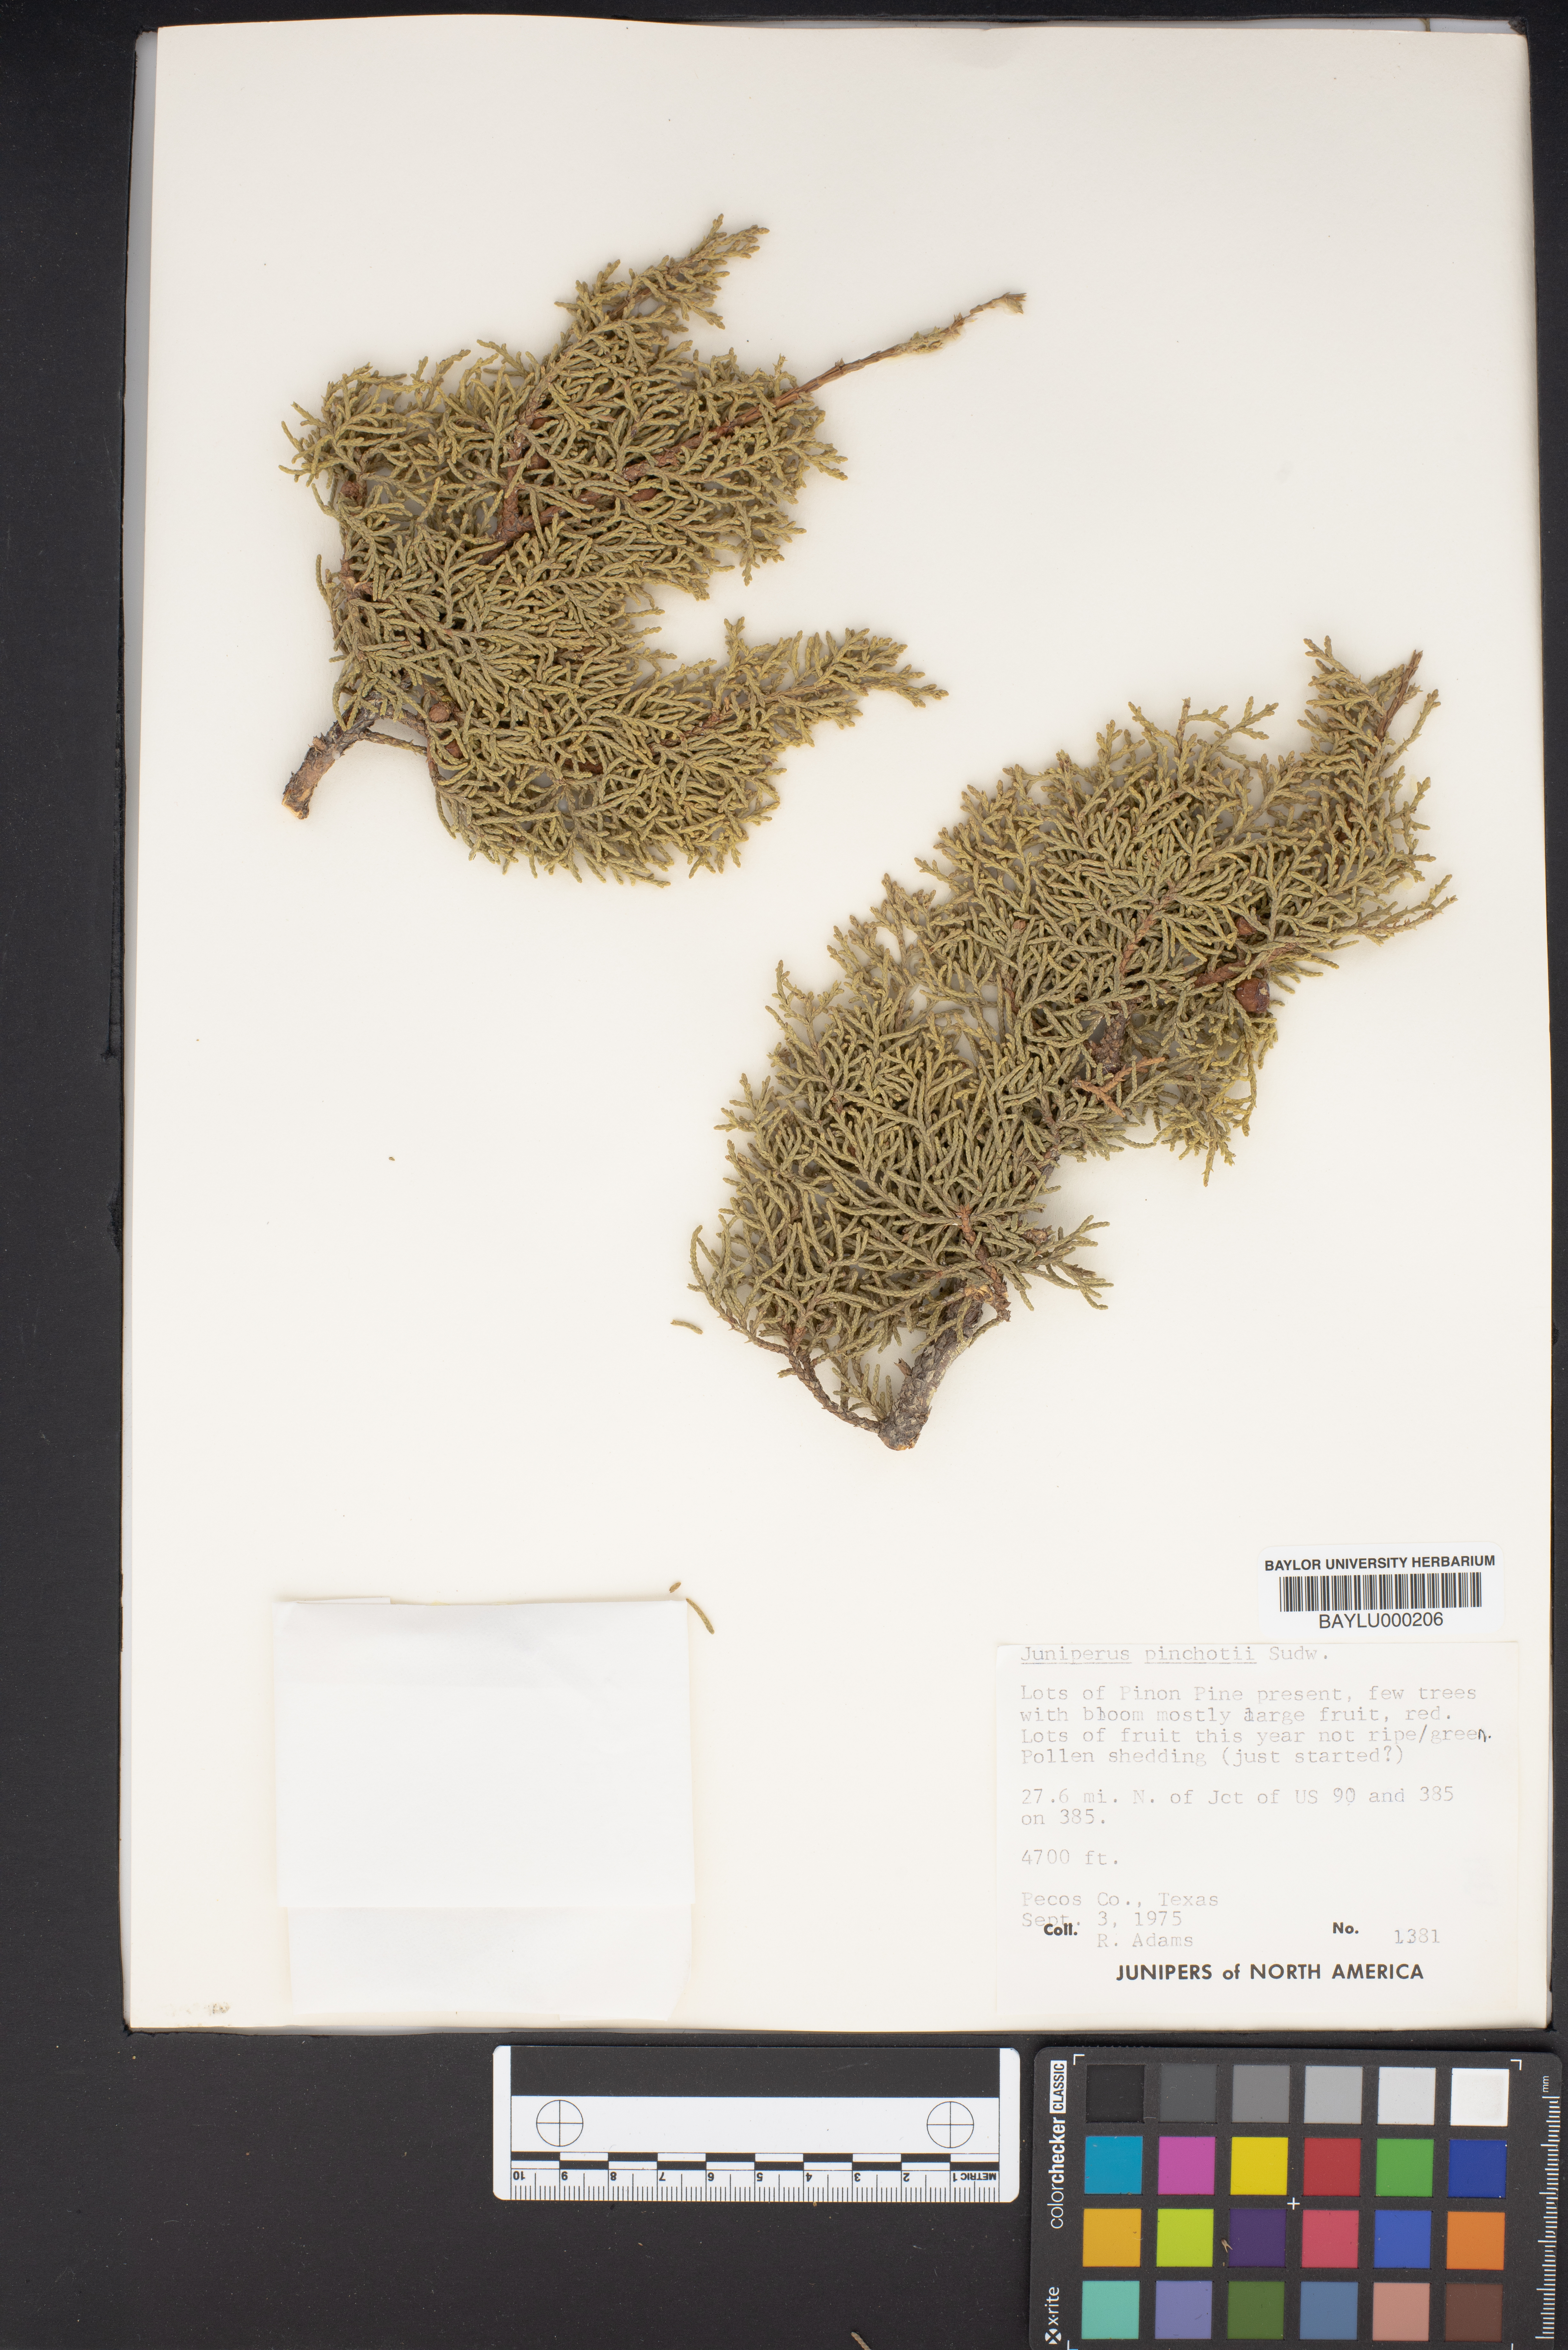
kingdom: Plantae
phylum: Tracheophyta
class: Pinopsida
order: Pinales
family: Cupressaceae
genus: Juniperus
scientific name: Juniperus pinchotii
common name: Pinchot juniper
